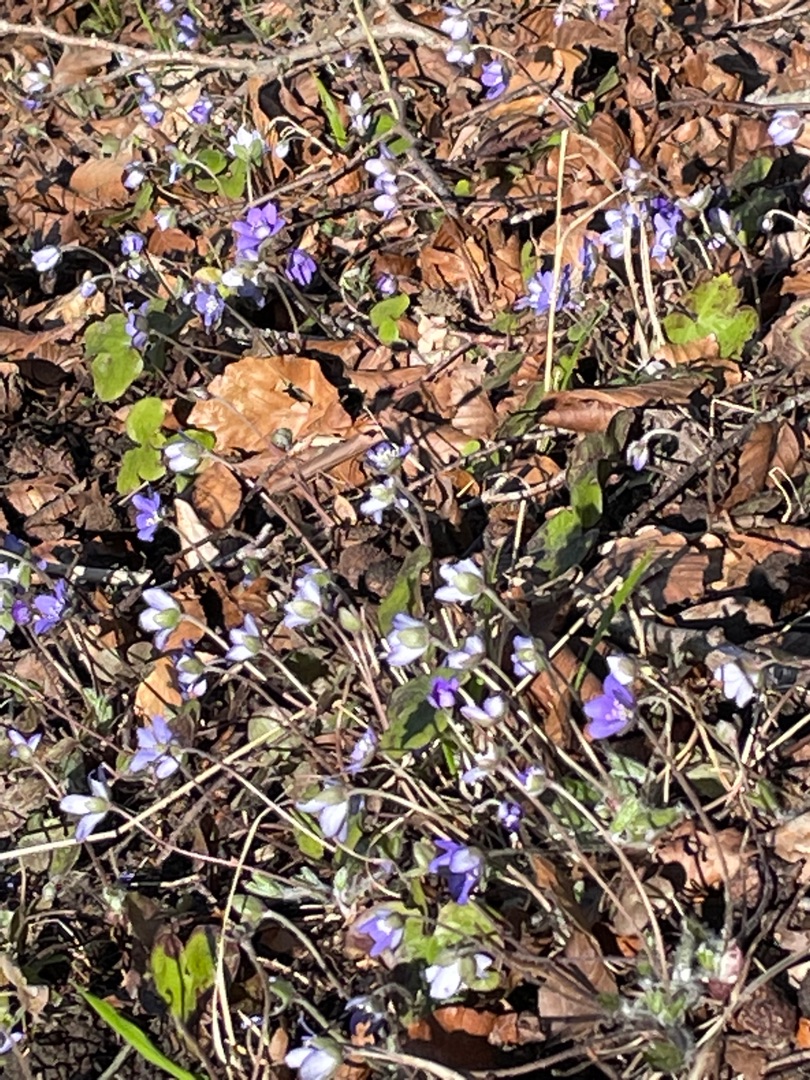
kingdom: Plantae
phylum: Tracheophyta
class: Magnoliopsida
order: Ranunculales
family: Ranunculaceae
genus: Hepatica
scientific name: Hepatica nobilis
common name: Blå anemone
